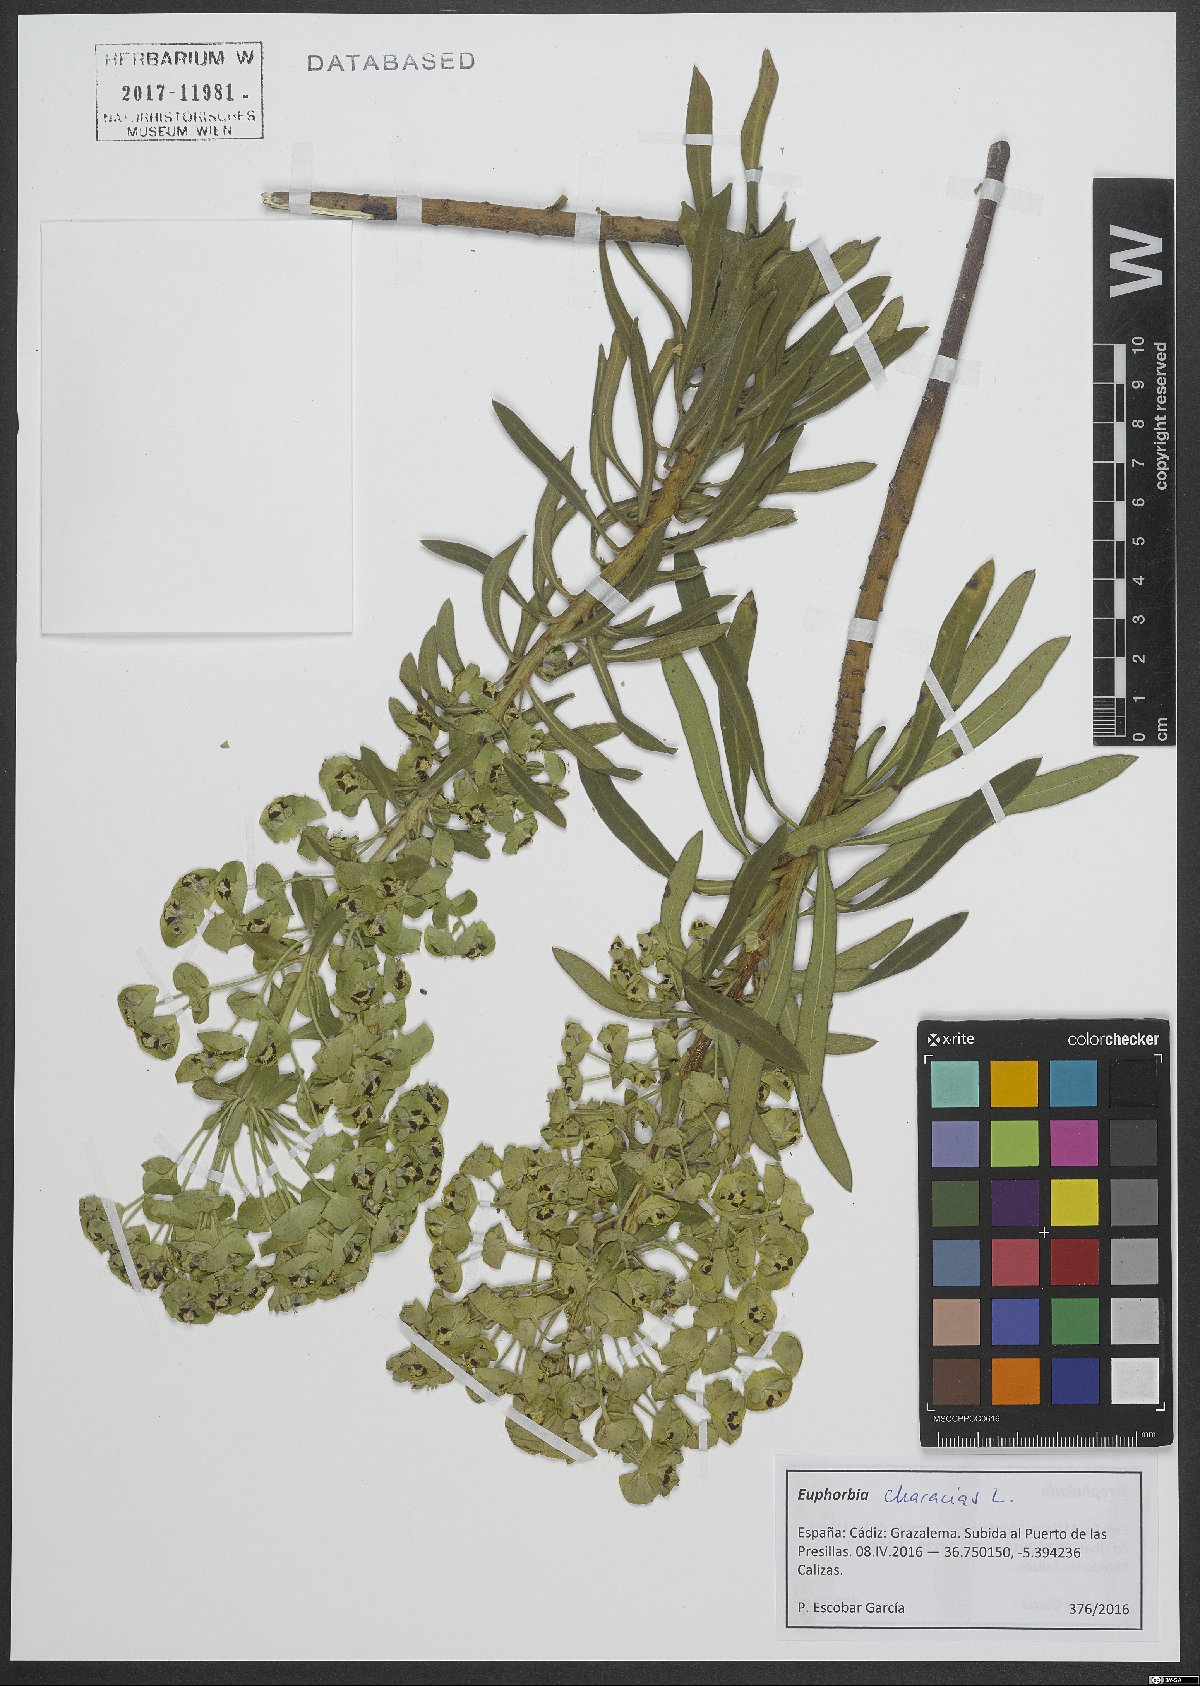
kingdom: Plantae
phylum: Tracheophyta
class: Magnoliopsida
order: Malpighiales
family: Euphorbiaceae
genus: Euphorbia
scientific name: Euphorbia characias
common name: Mediterranean spurge
